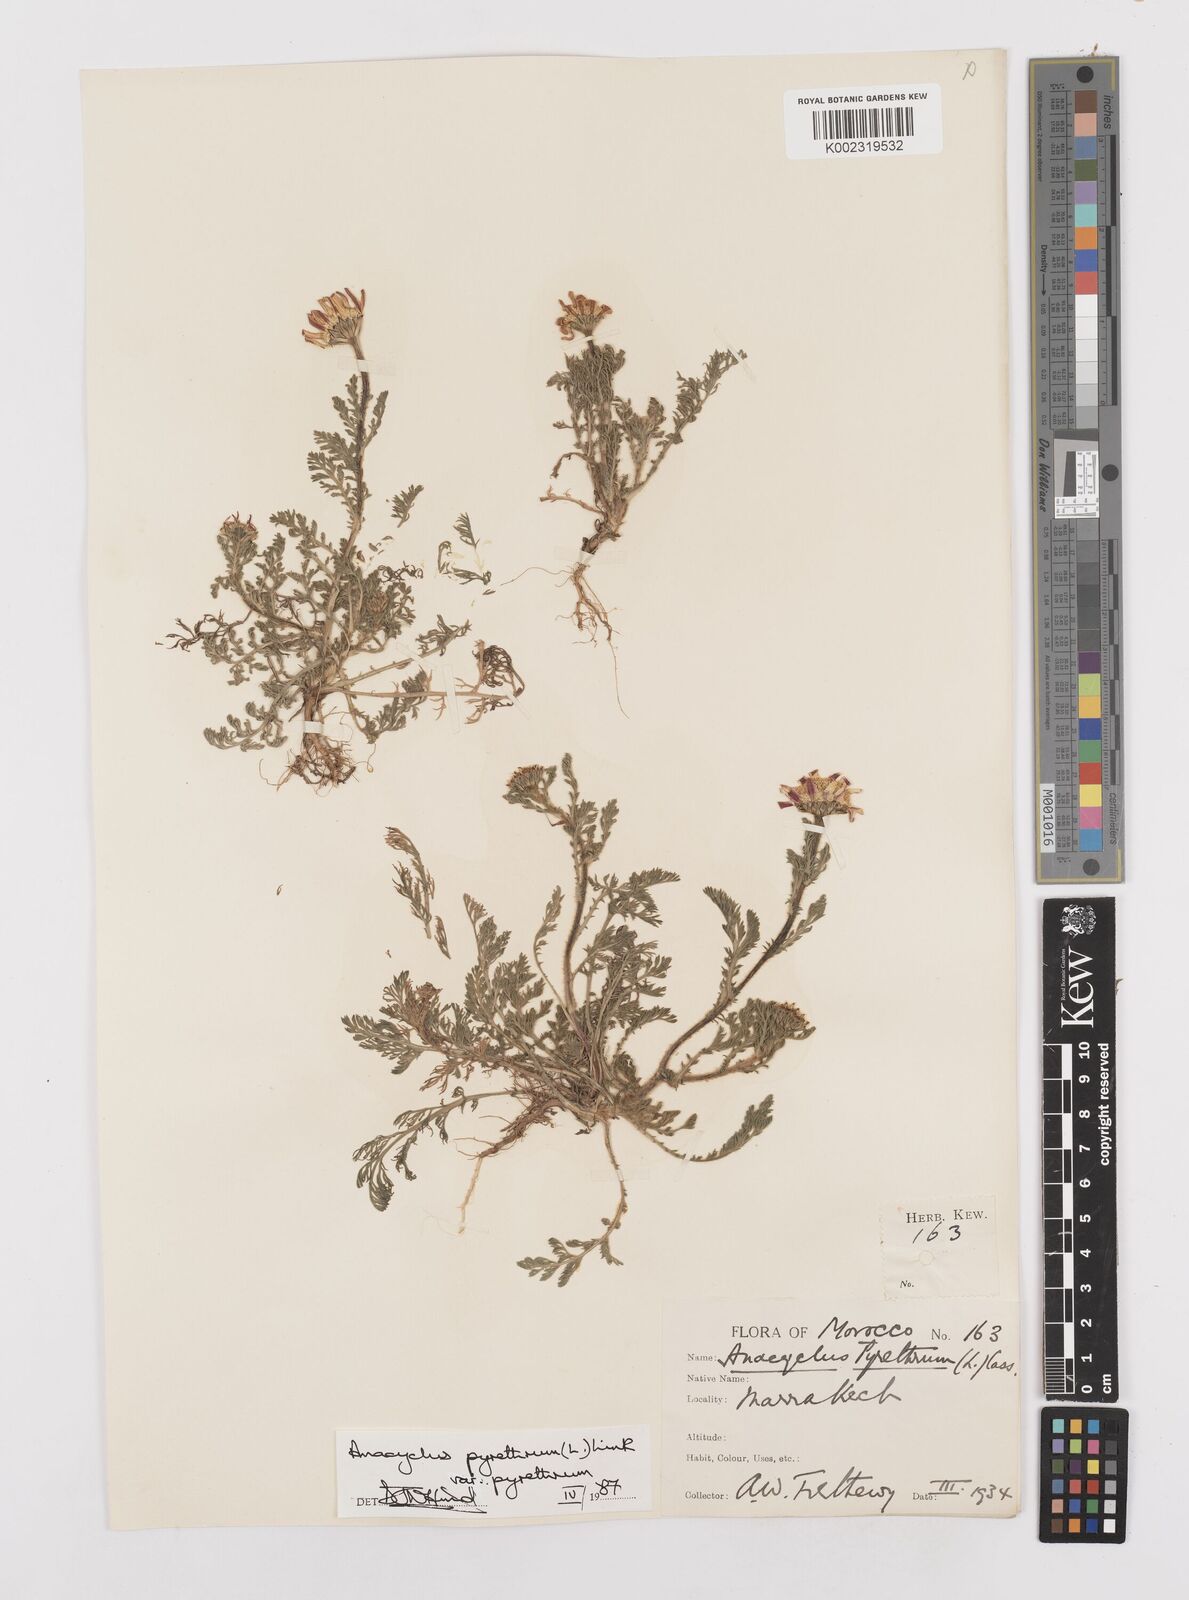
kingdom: Plantae
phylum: Tracheophyta
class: Magnoliopsida
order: Asterales
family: Asteraceae
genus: Anacyclus
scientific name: Anacyclus pyrethrum
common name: Mt. atlas daisy
